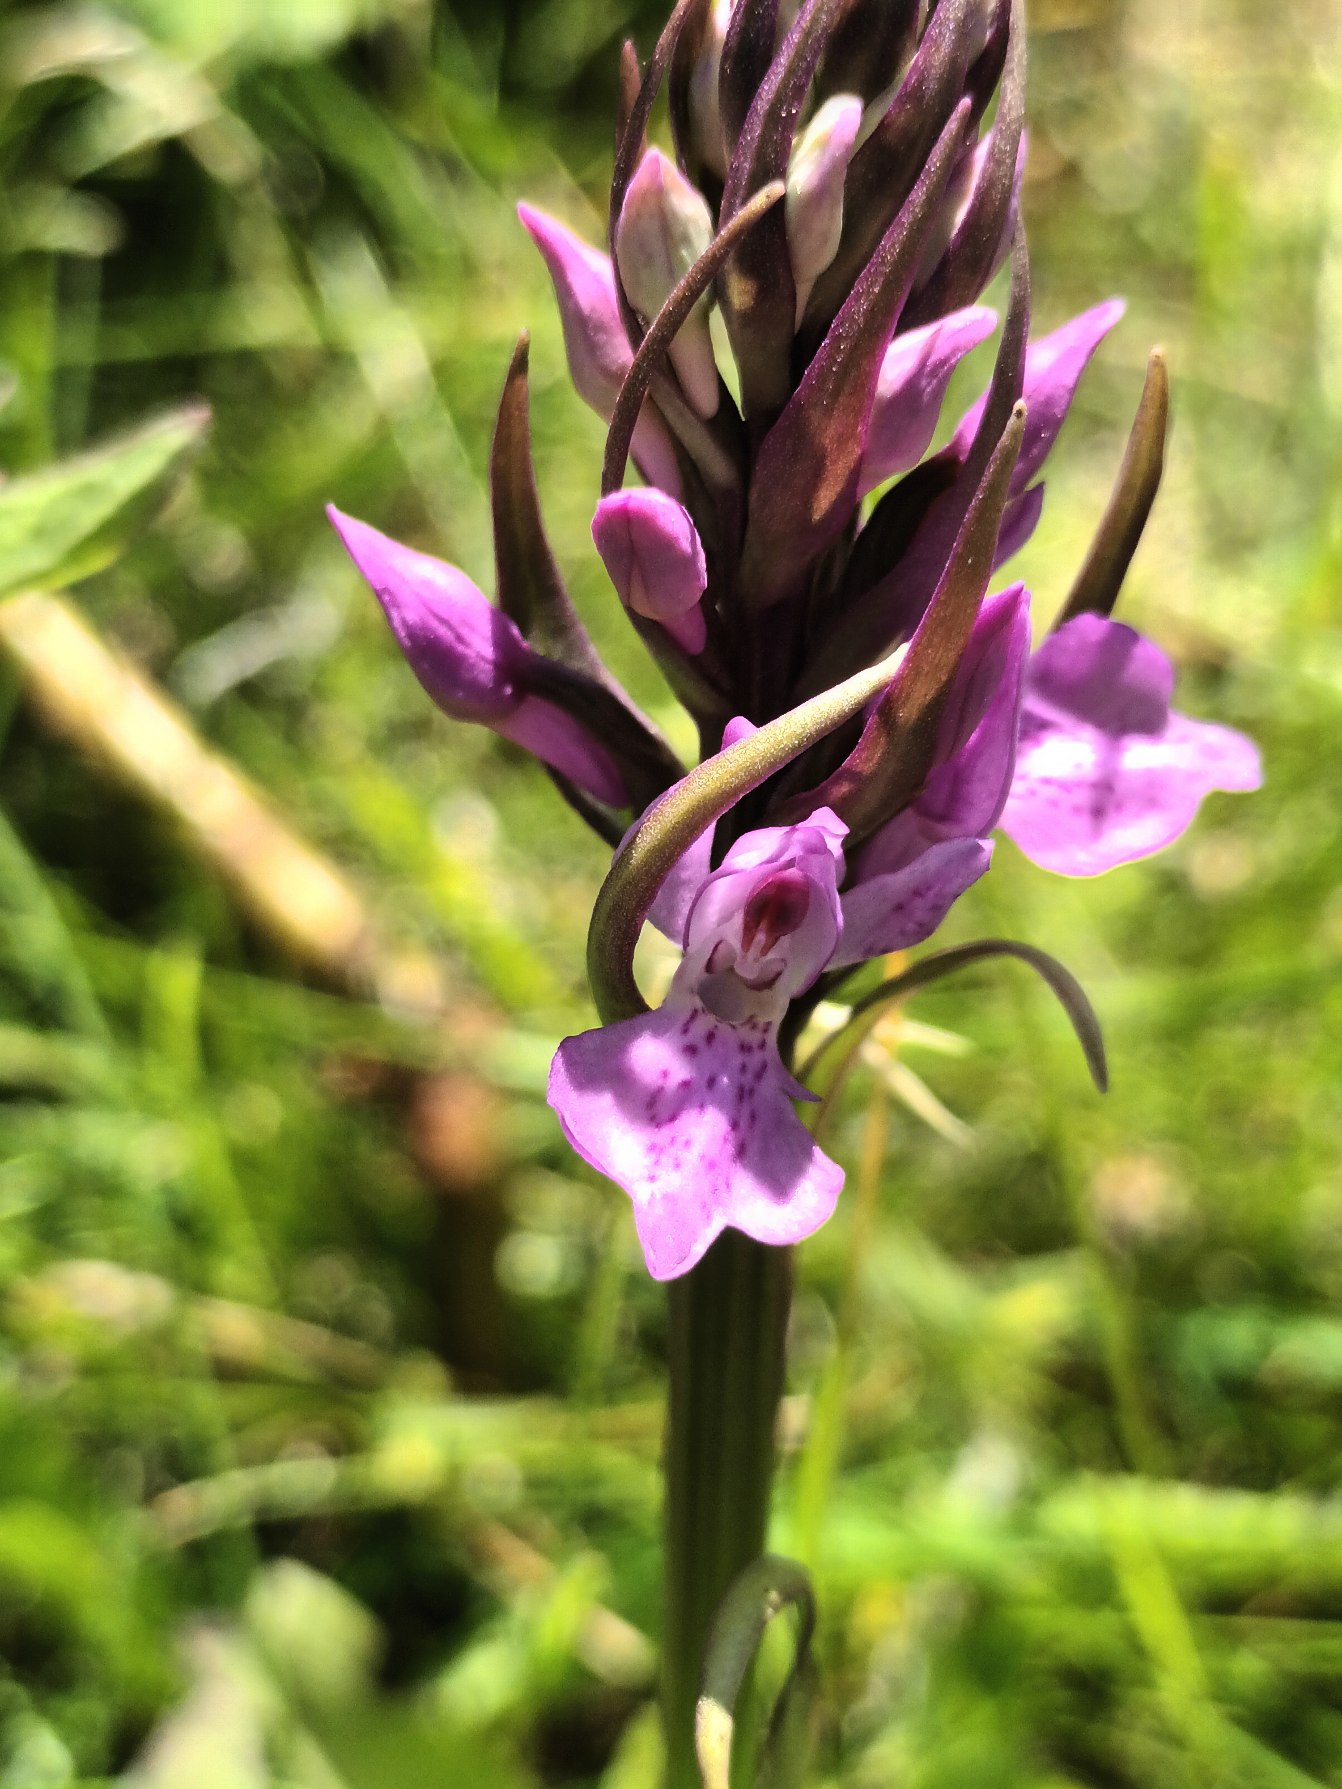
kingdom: Plantae
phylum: Tracheophyta
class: Liliopsida
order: Asparagales
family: Orchidaceae
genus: Dactylorhiza
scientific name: Dactylorhiza majalis
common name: Priklæbet gøgeurt
